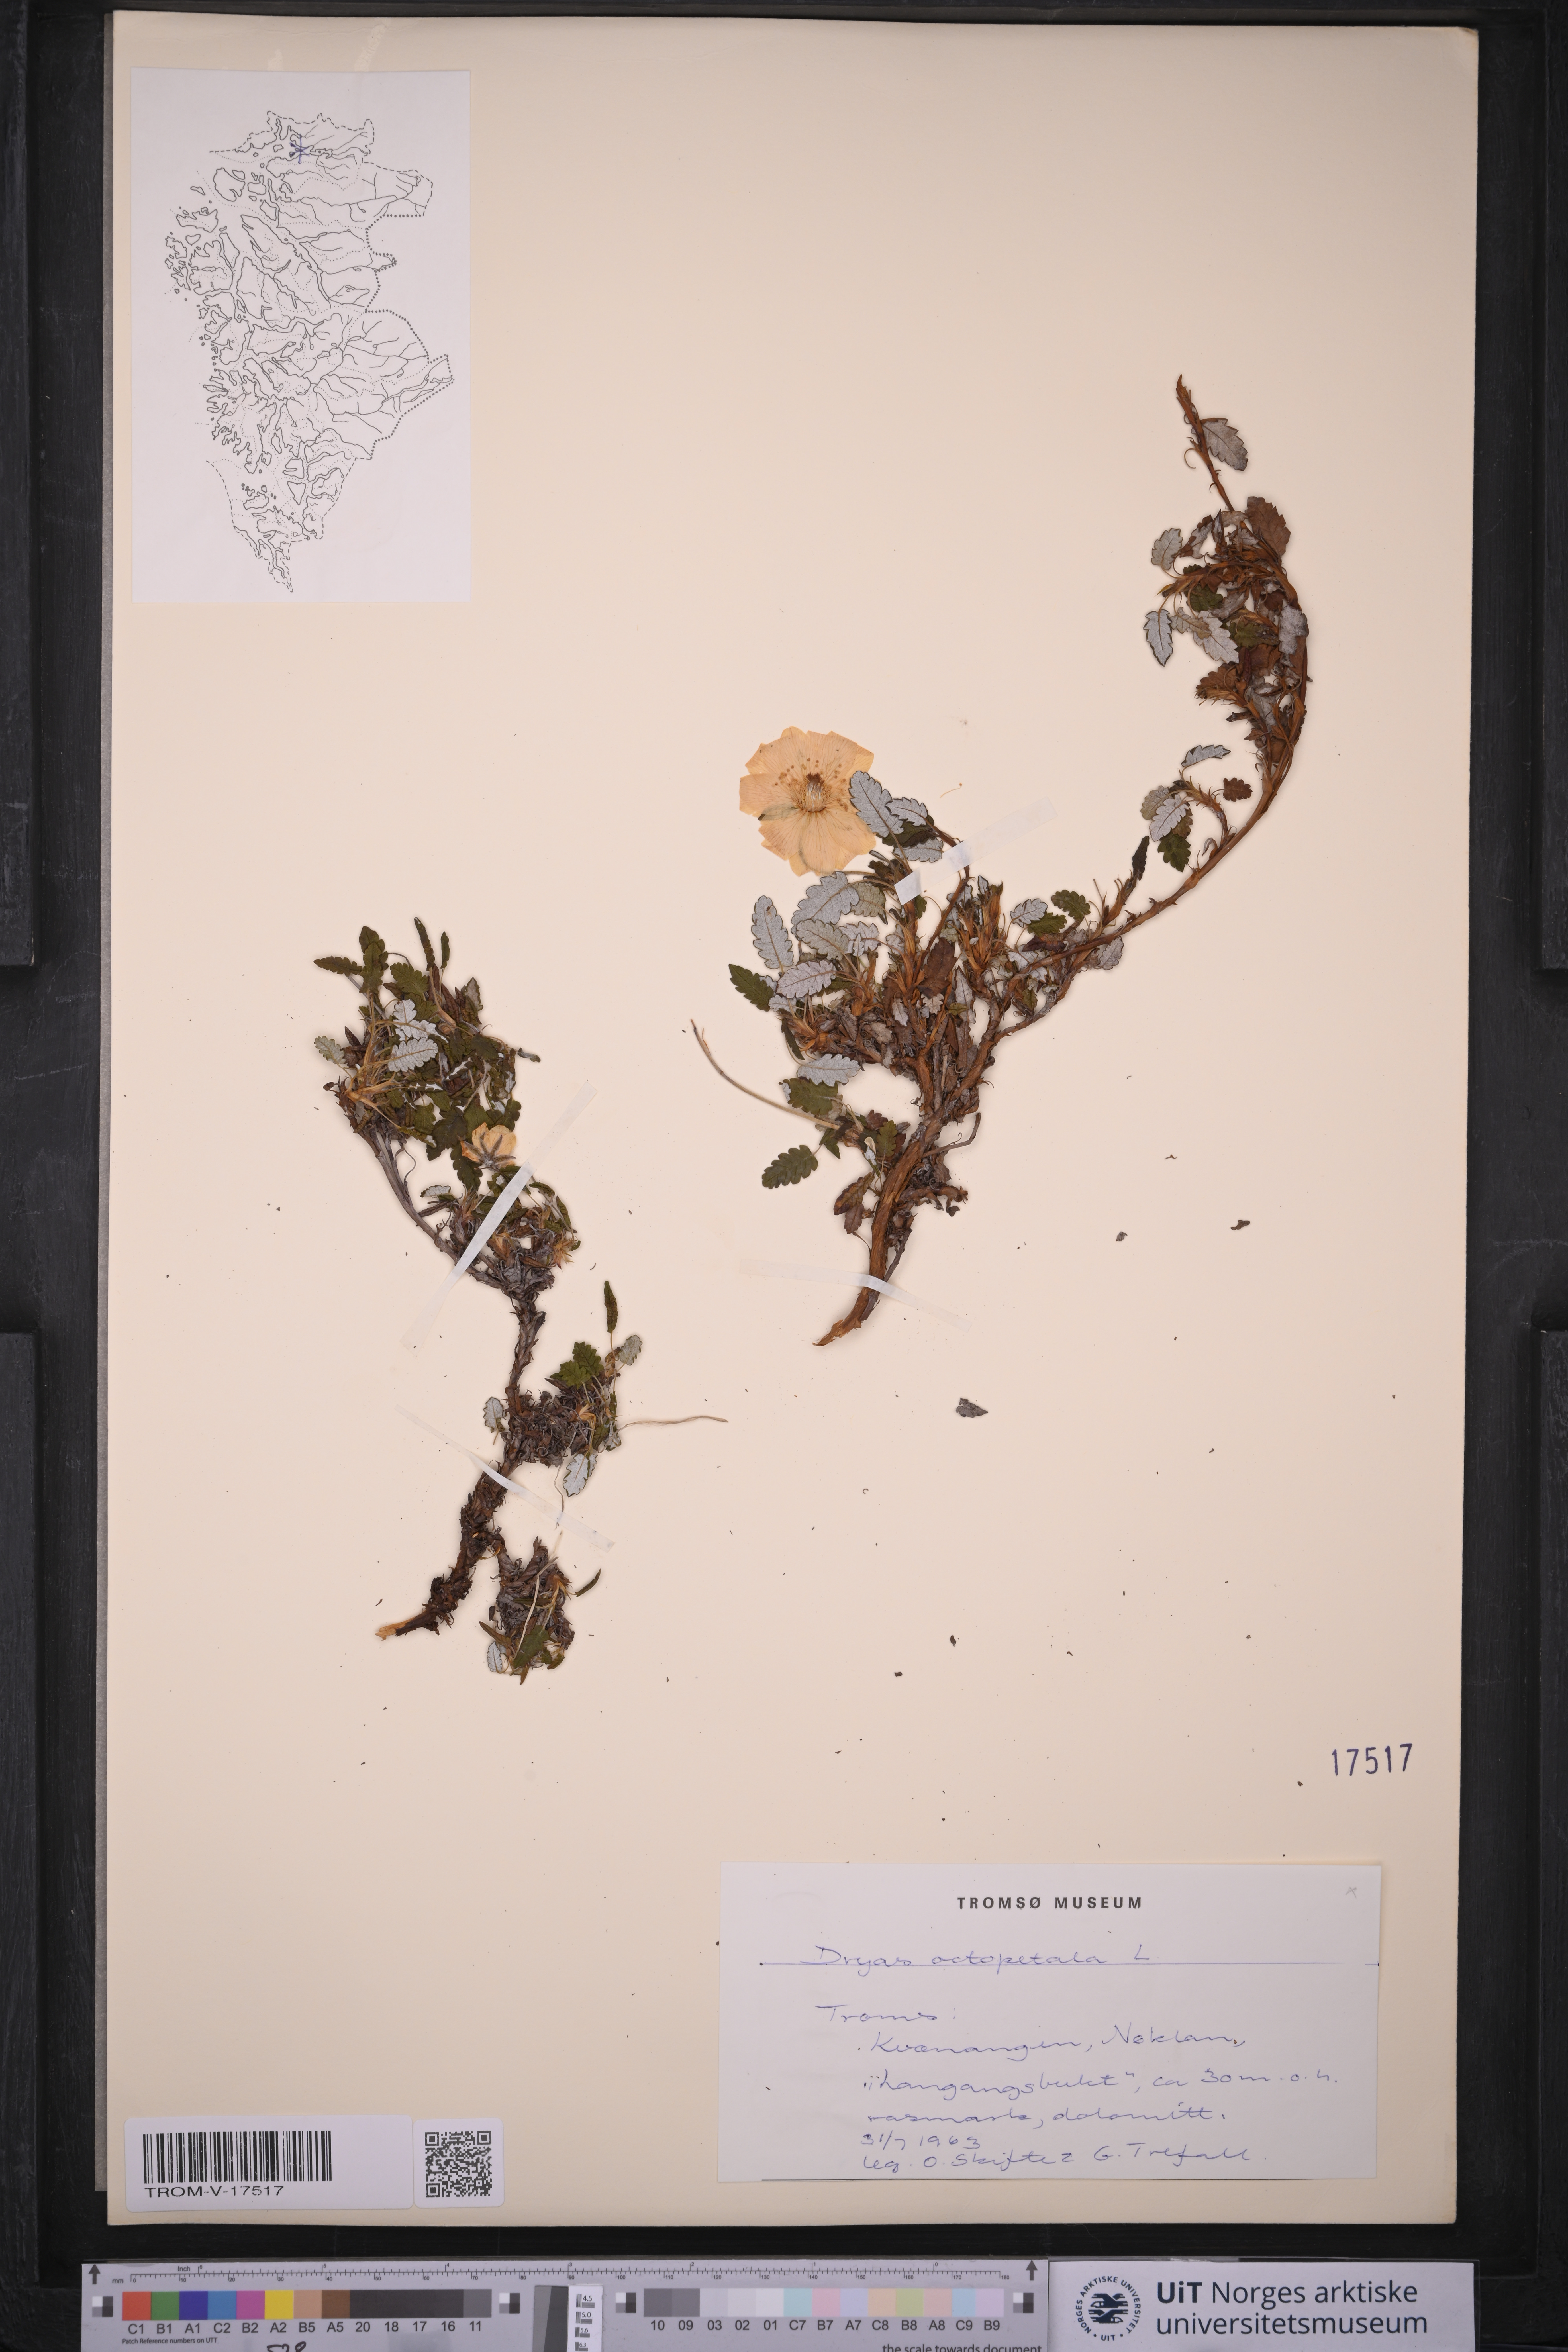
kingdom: Plantae
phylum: Tracheophyta
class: Magnoliopsida
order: Rosales
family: Rosaceae
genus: Dryas
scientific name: Dryas octopetala
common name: Eight-petal mountain-avens
